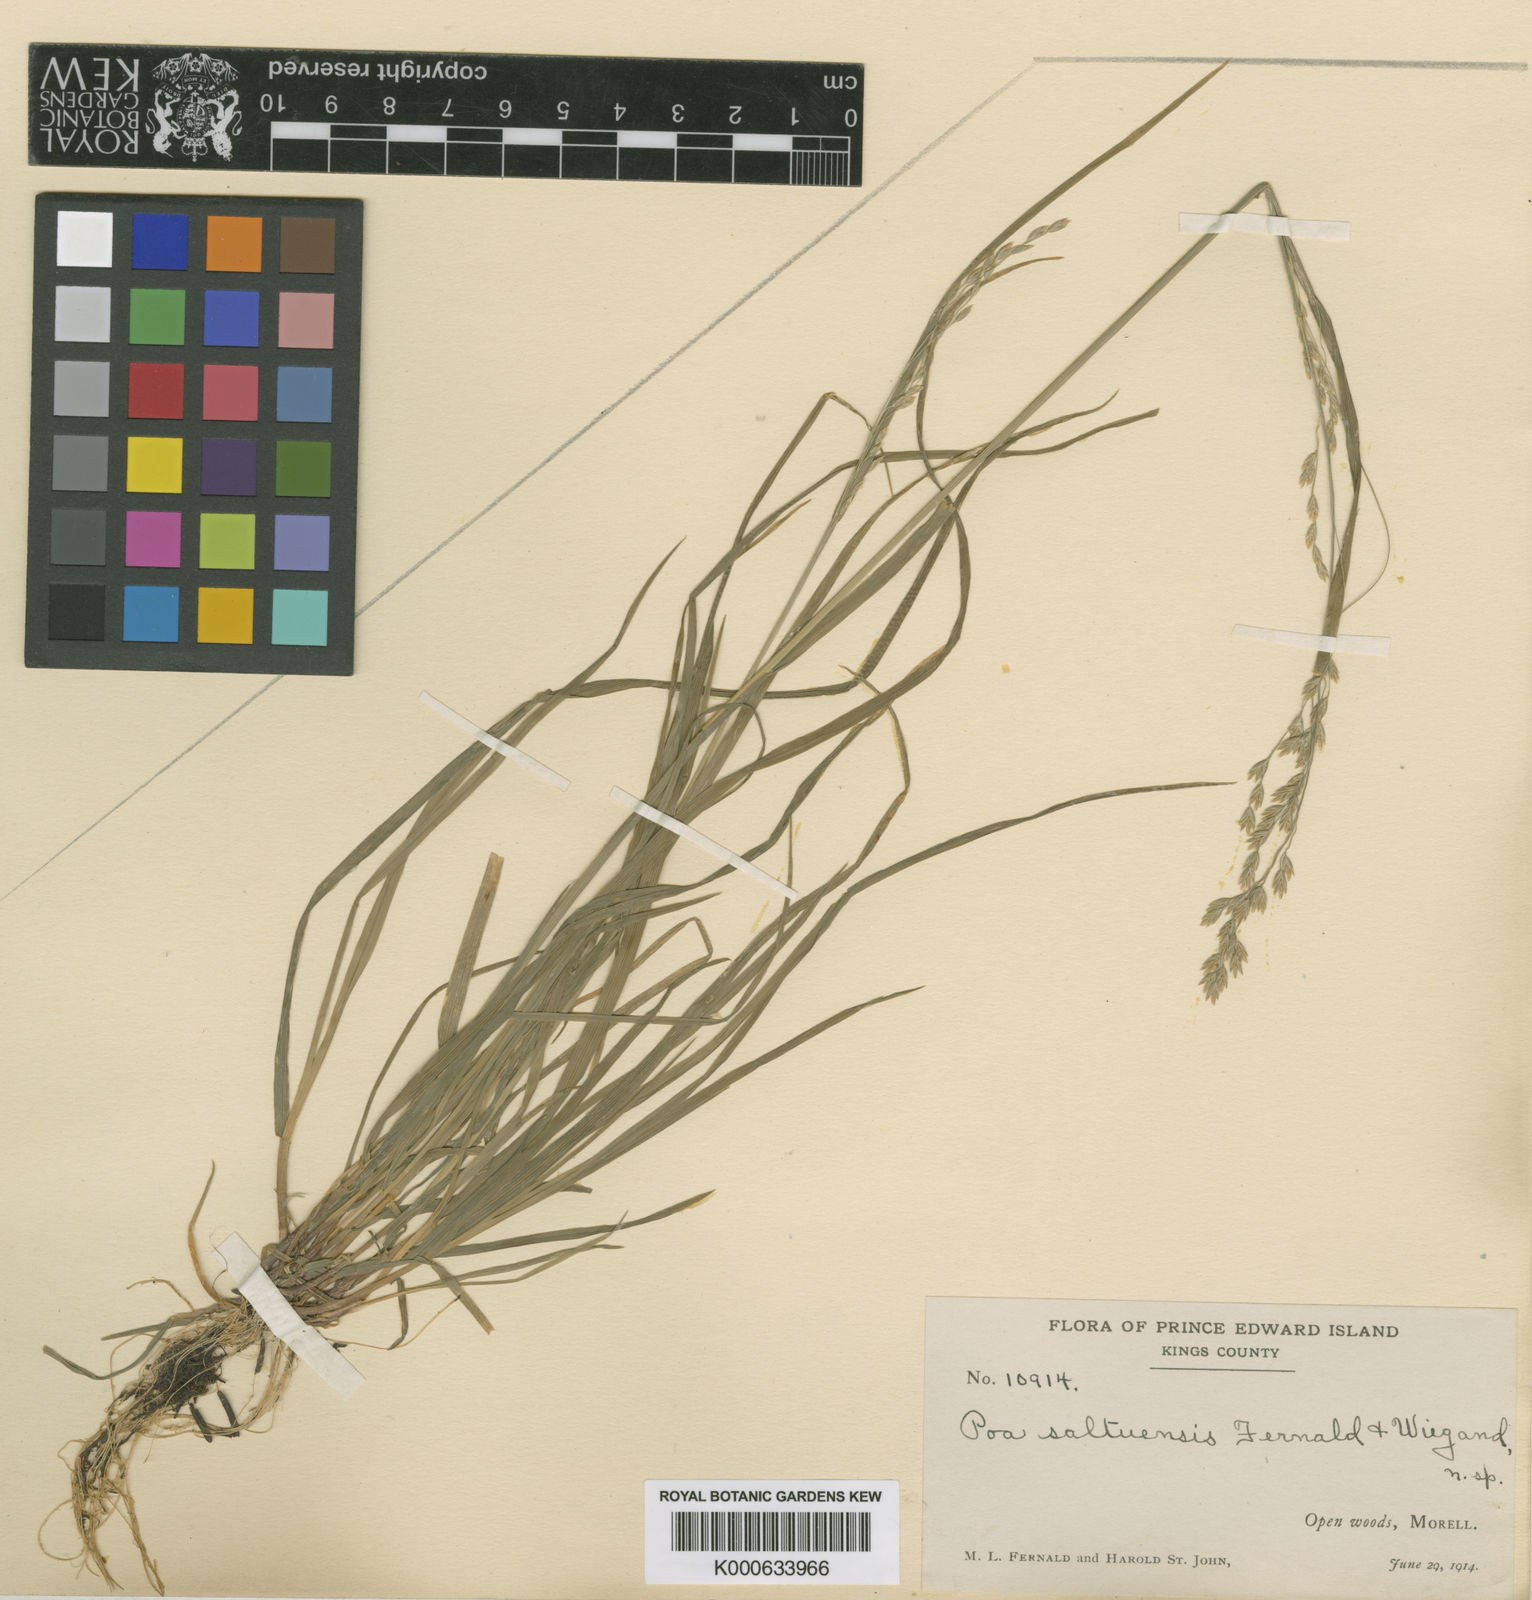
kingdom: Plantae
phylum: Tracheophyta
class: Liliopsida
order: Poales
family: Poaceae
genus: Poa
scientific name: Poa saltuensis
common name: Bushy pasture speargrass
